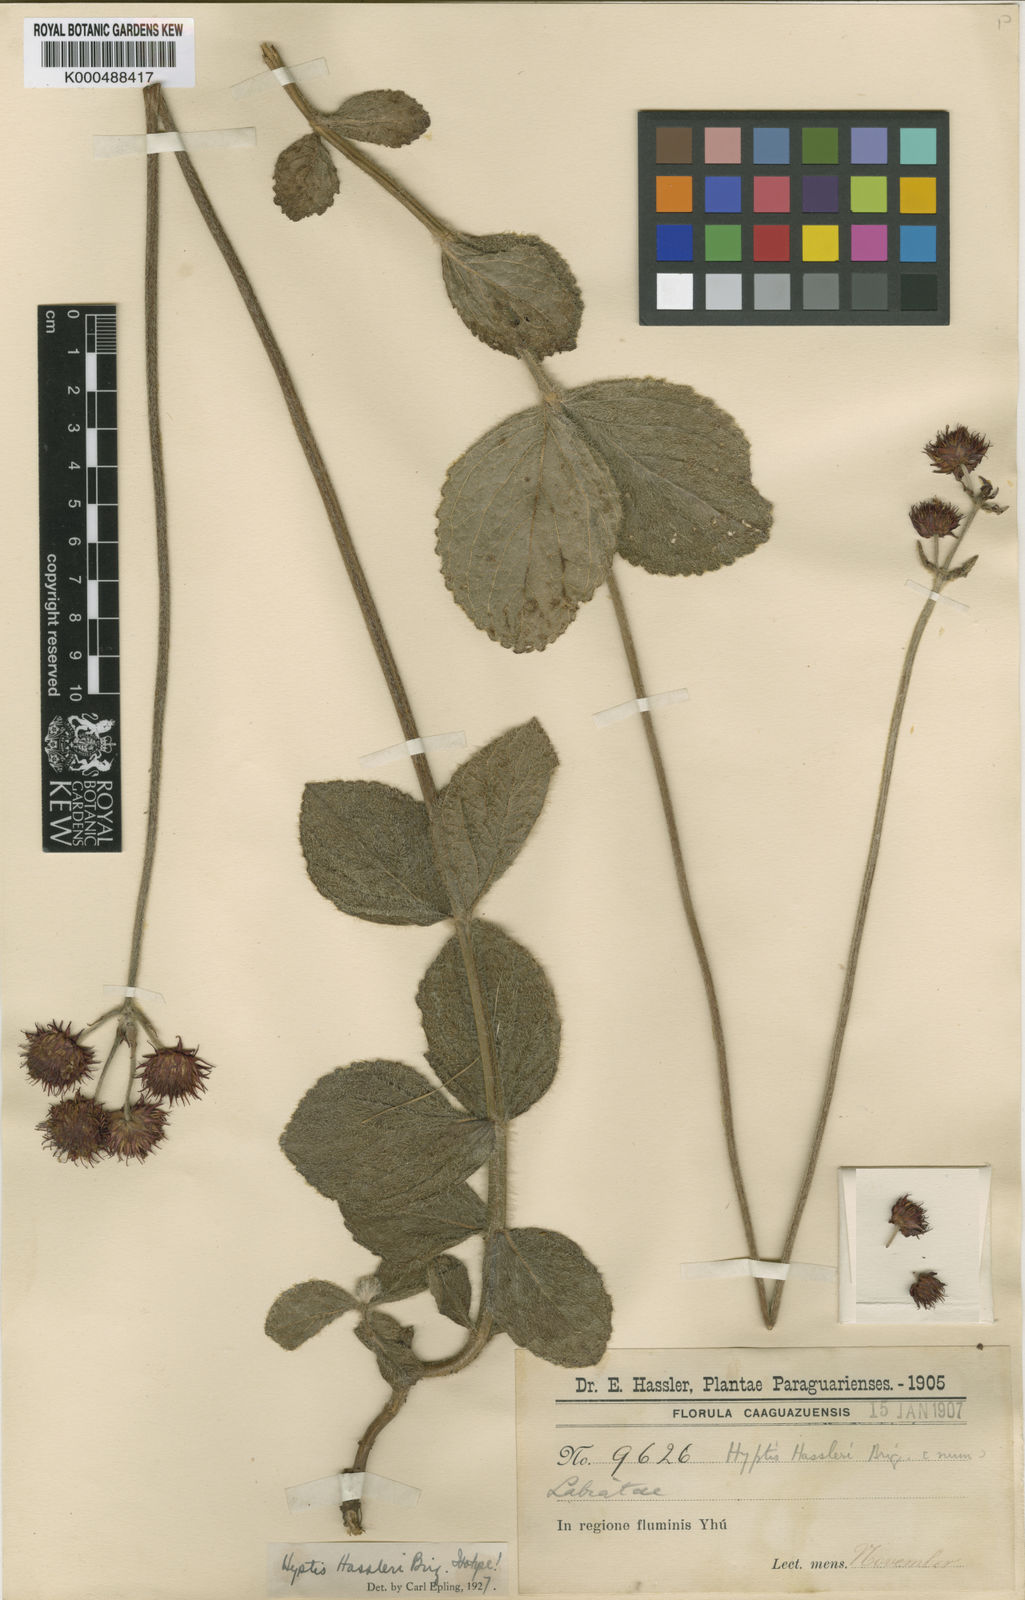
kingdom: Plantae
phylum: Tracheophyta
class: Magnoliopsida
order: Lamiales
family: Lamiaceae
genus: Hyptis
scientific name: Hyptis hassleri
